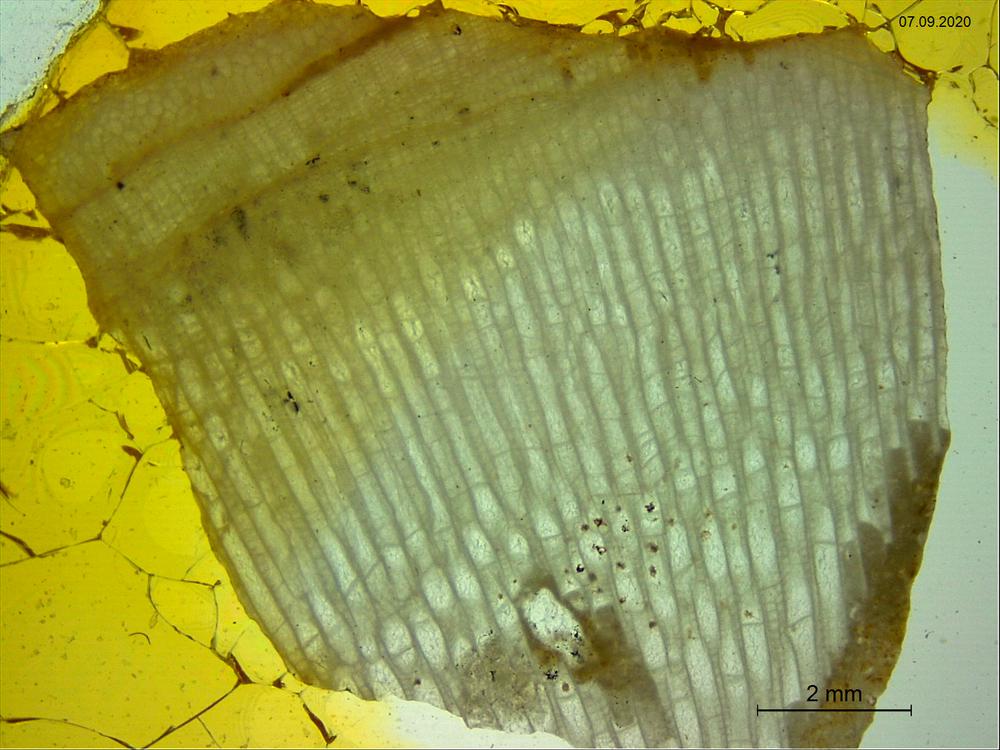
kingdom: Animalia
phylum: Cnidaria
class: Anthozoa
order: Heliolitina
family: Heliolitidae
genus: Heliolites
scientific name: Heliolites
